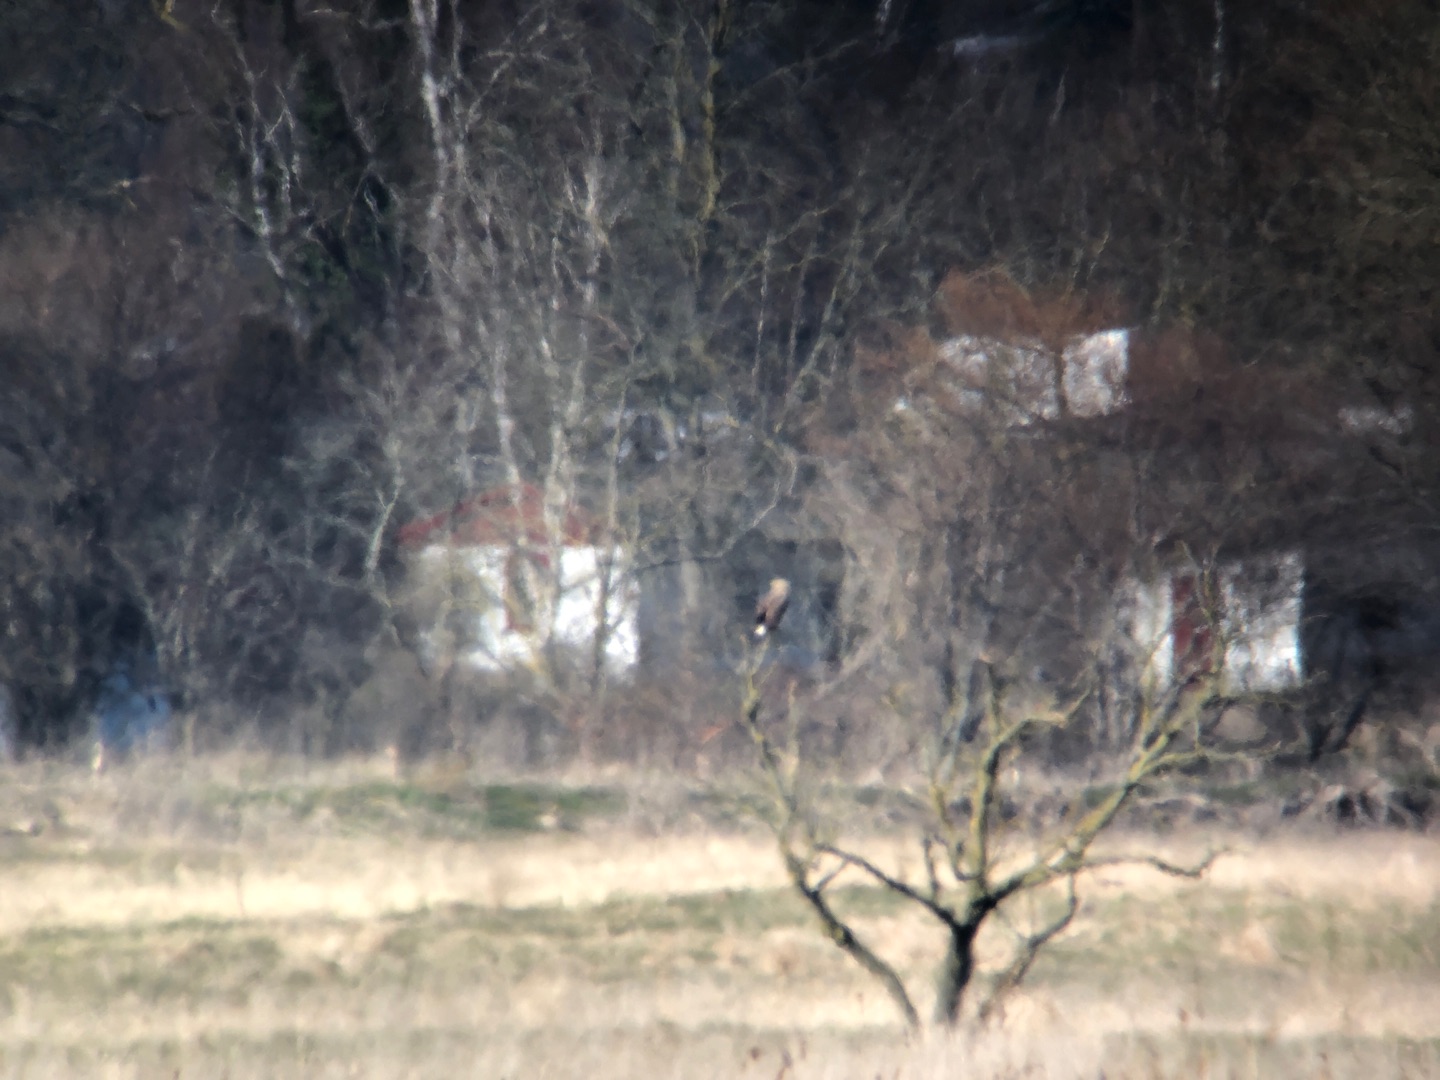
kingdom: Animalia
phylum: Chordata
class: Aves
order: Accipitriformes
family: Accipitridae
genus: Haliaeetus
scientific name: Haliaeetus albicilla
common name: Havørn
